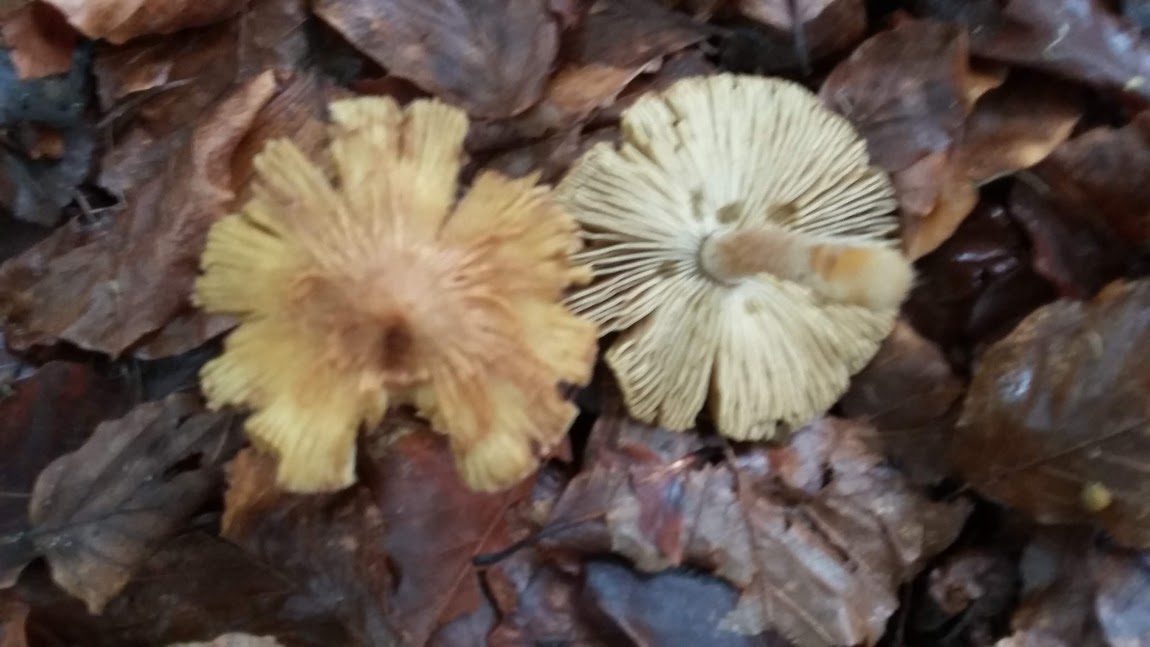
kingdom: Fungi
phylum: Basidiomycota
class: Agaricomycetes
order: Agaricales
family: Inocybaceae
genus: Inocybe
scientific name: Inocybe
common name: trævlhat
